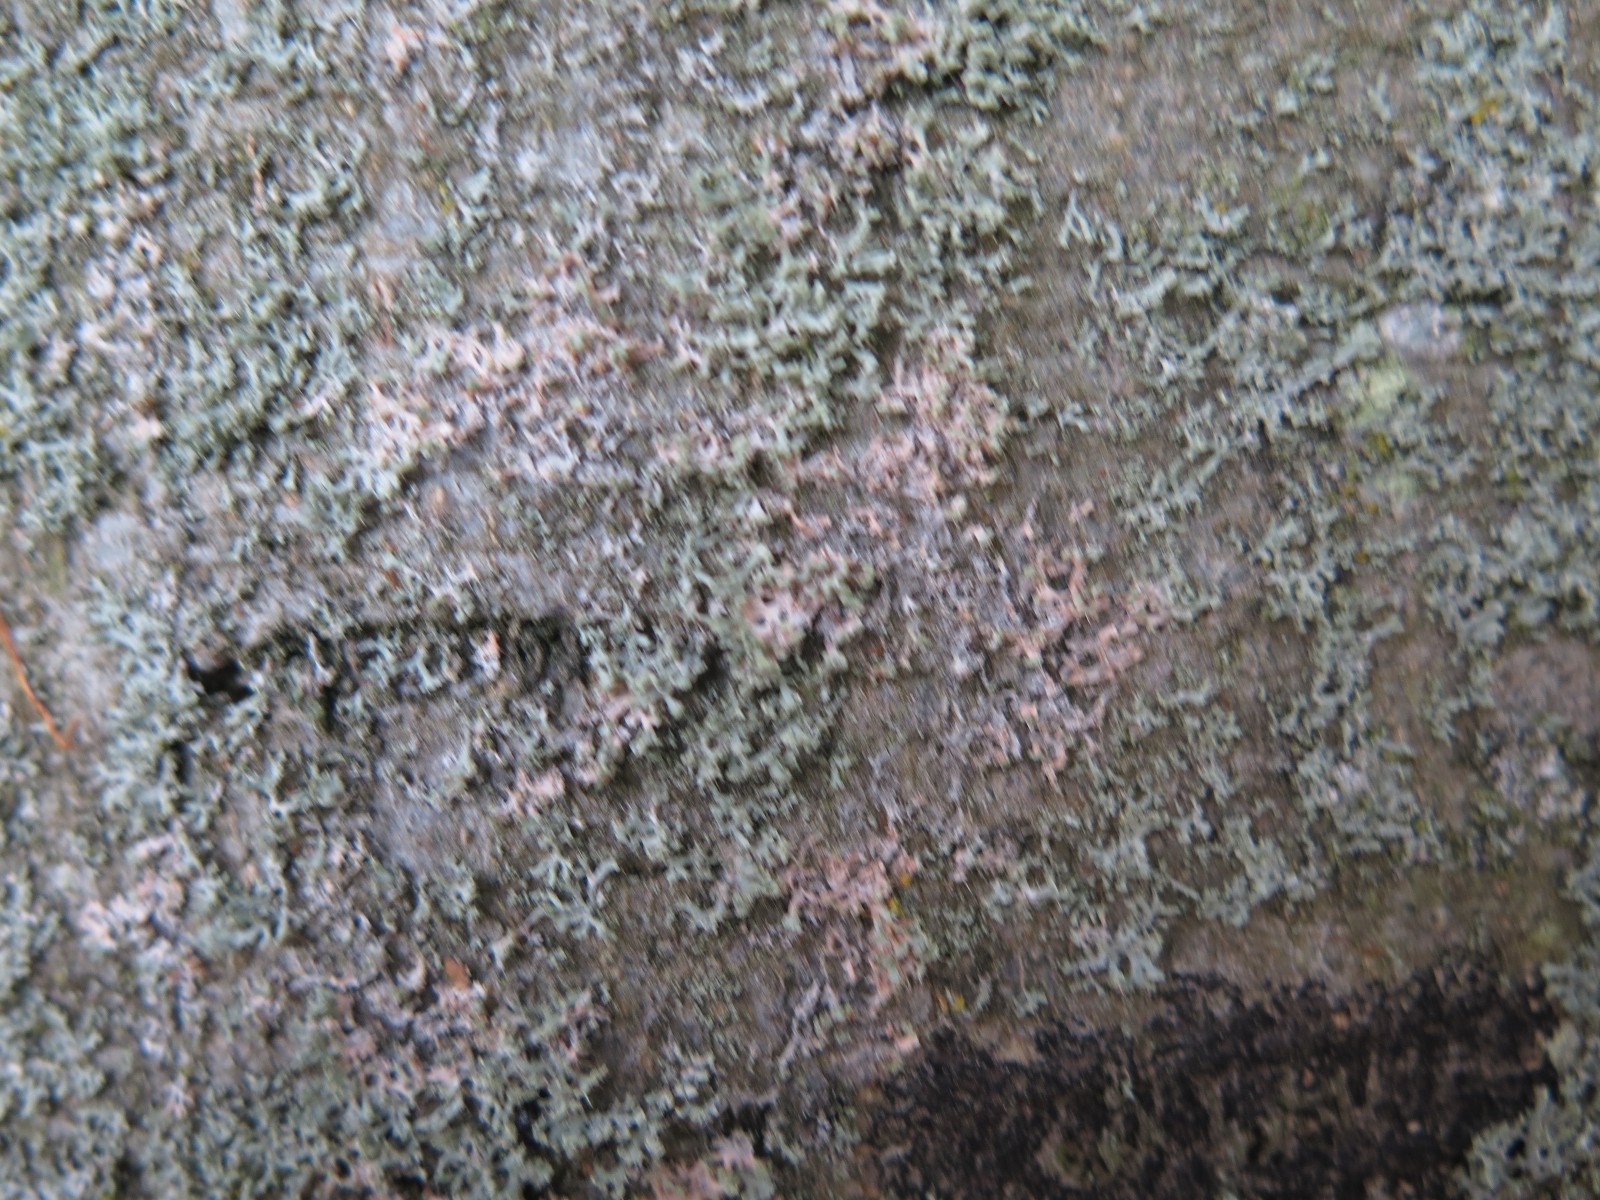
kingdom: Fungi
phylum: Basidiomycota
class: Agaricomycetes
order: Corticiales
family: Corticiaceae
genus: Erythricium
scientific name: Erythricium aurantiacum
